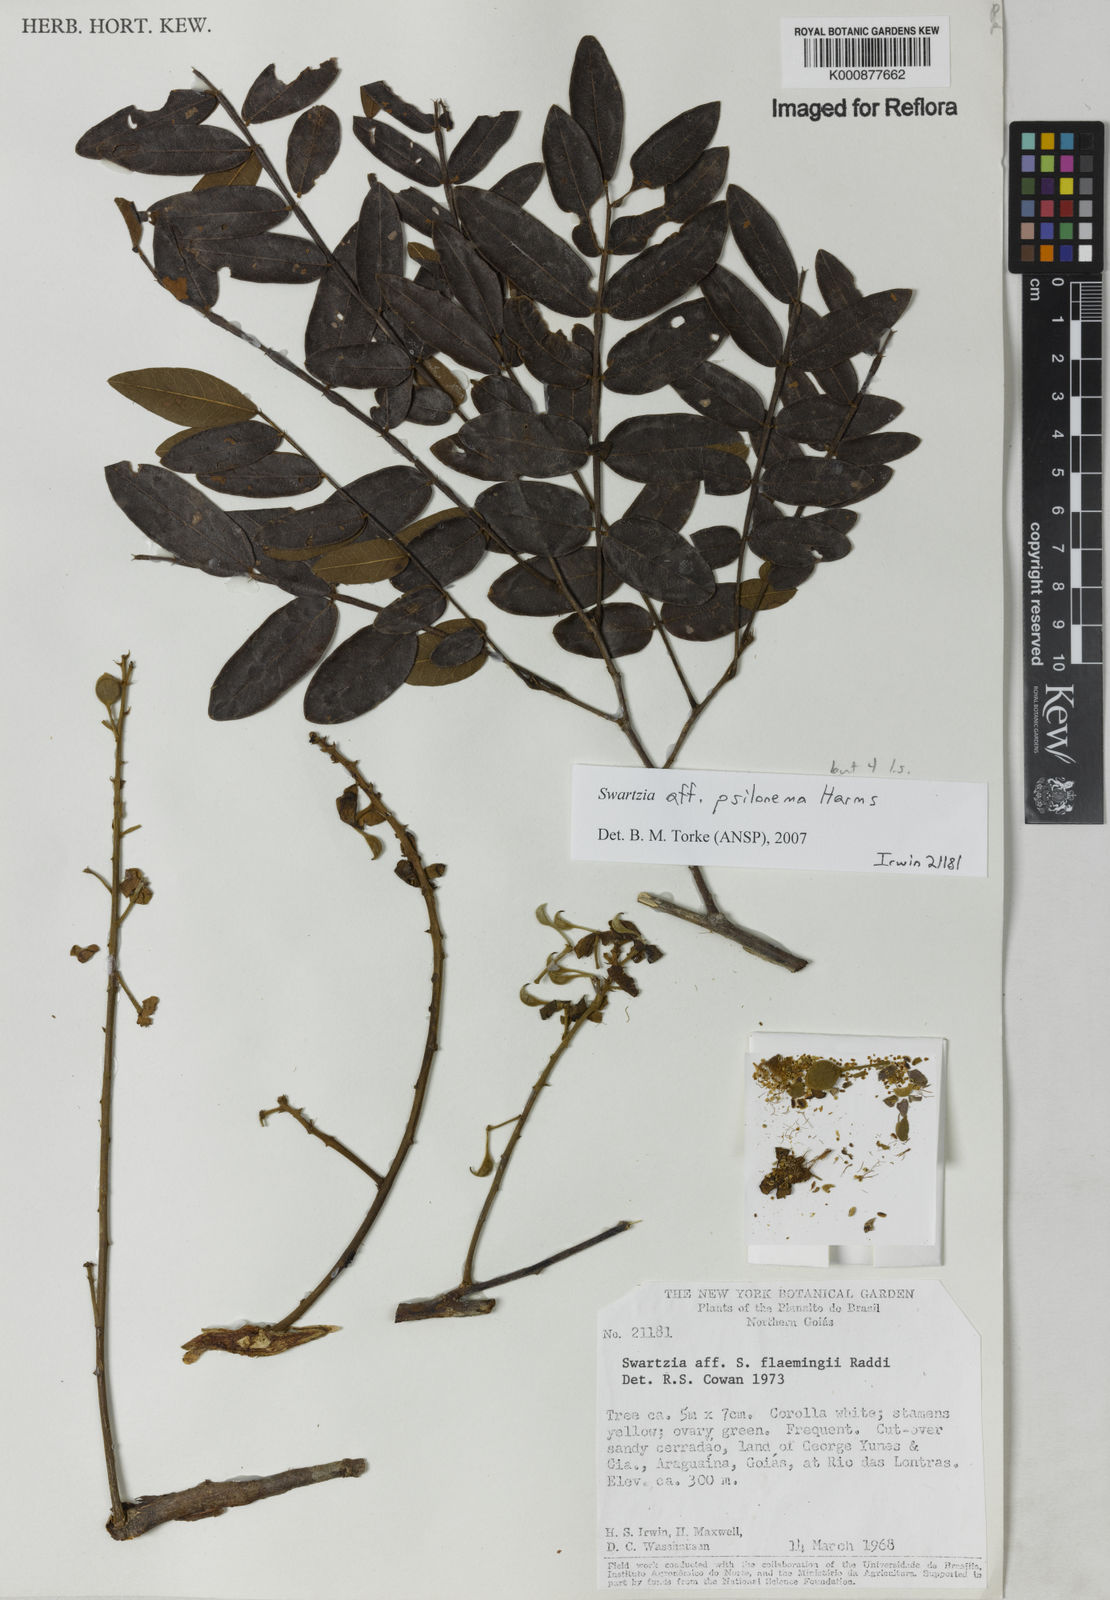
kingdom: Plantae
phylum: Tracheophyta
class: Magnoliopsida
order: Fabales
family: Fabaceae
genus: Swartzia
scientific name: Swartzia psilonema
